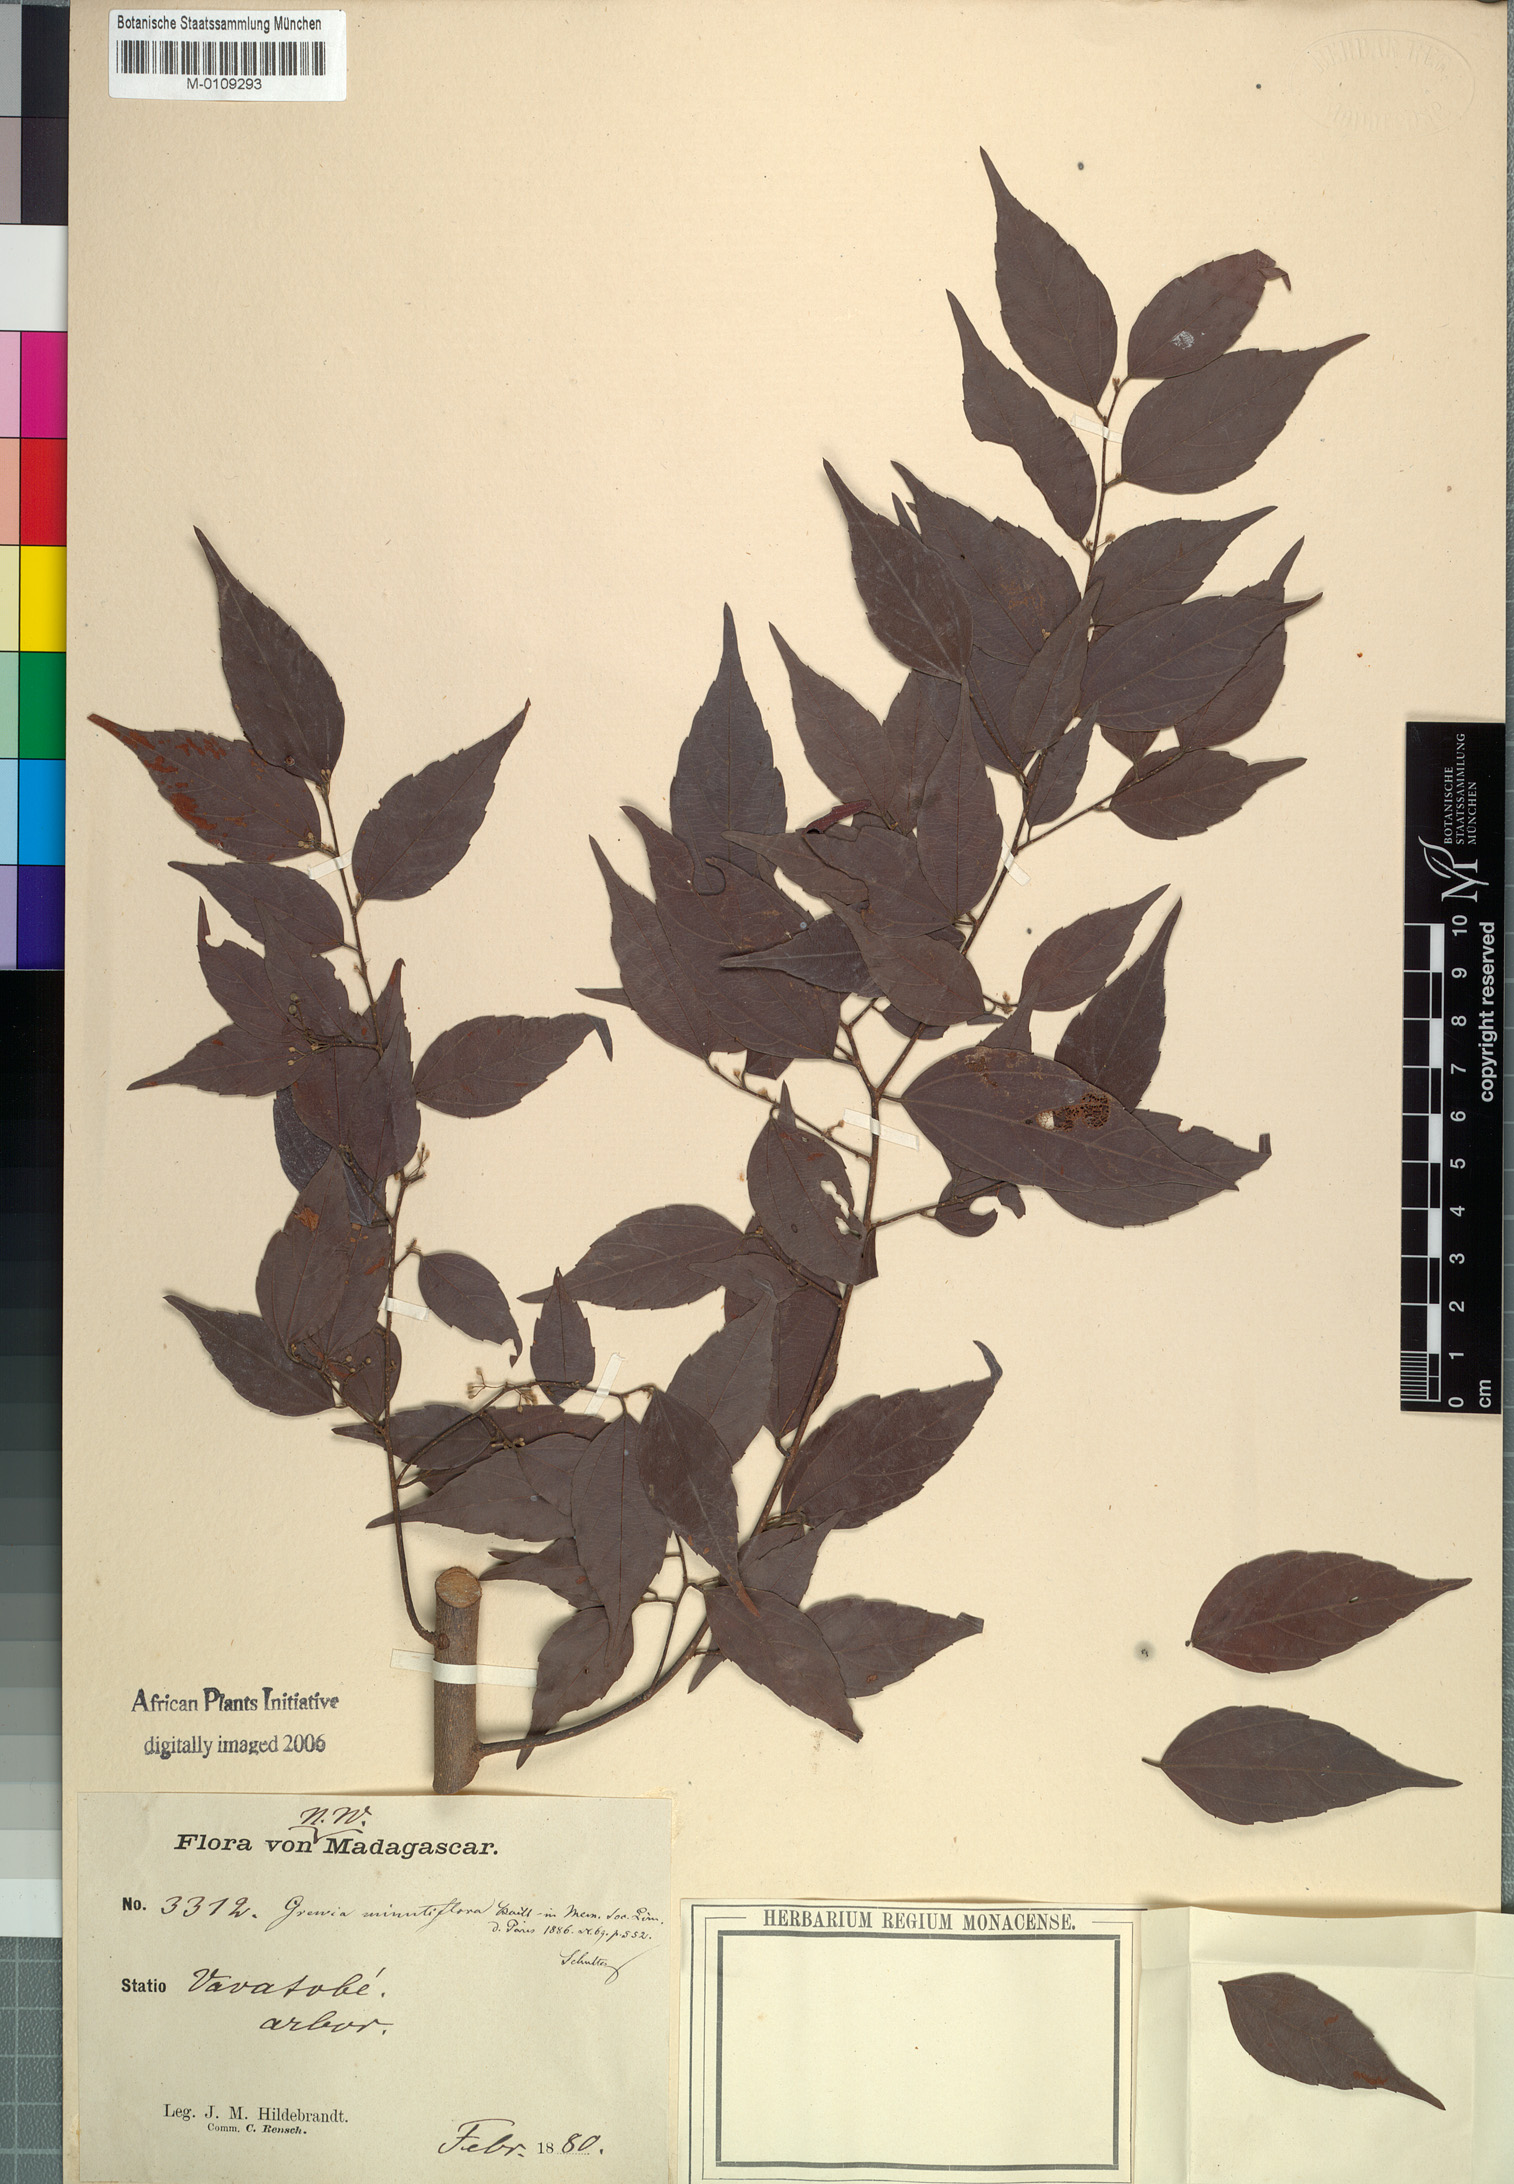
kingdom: Plantae
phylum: Tracheophyta
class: Magnoliopsida
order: Malvales
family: Malvaceae
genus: Grewia
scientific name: Grewia brideliifolia
